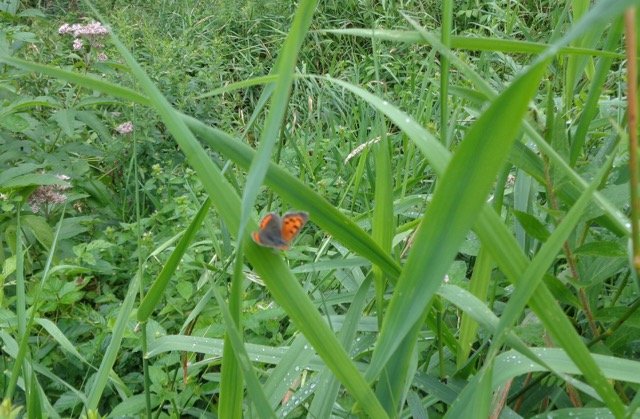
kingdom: Animalia
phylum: Arthropoda
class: Insecta
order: Lepidoptera
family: Lycaenidae
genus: Lycaena
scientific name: Lycaena phlaeas
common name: American Copper
